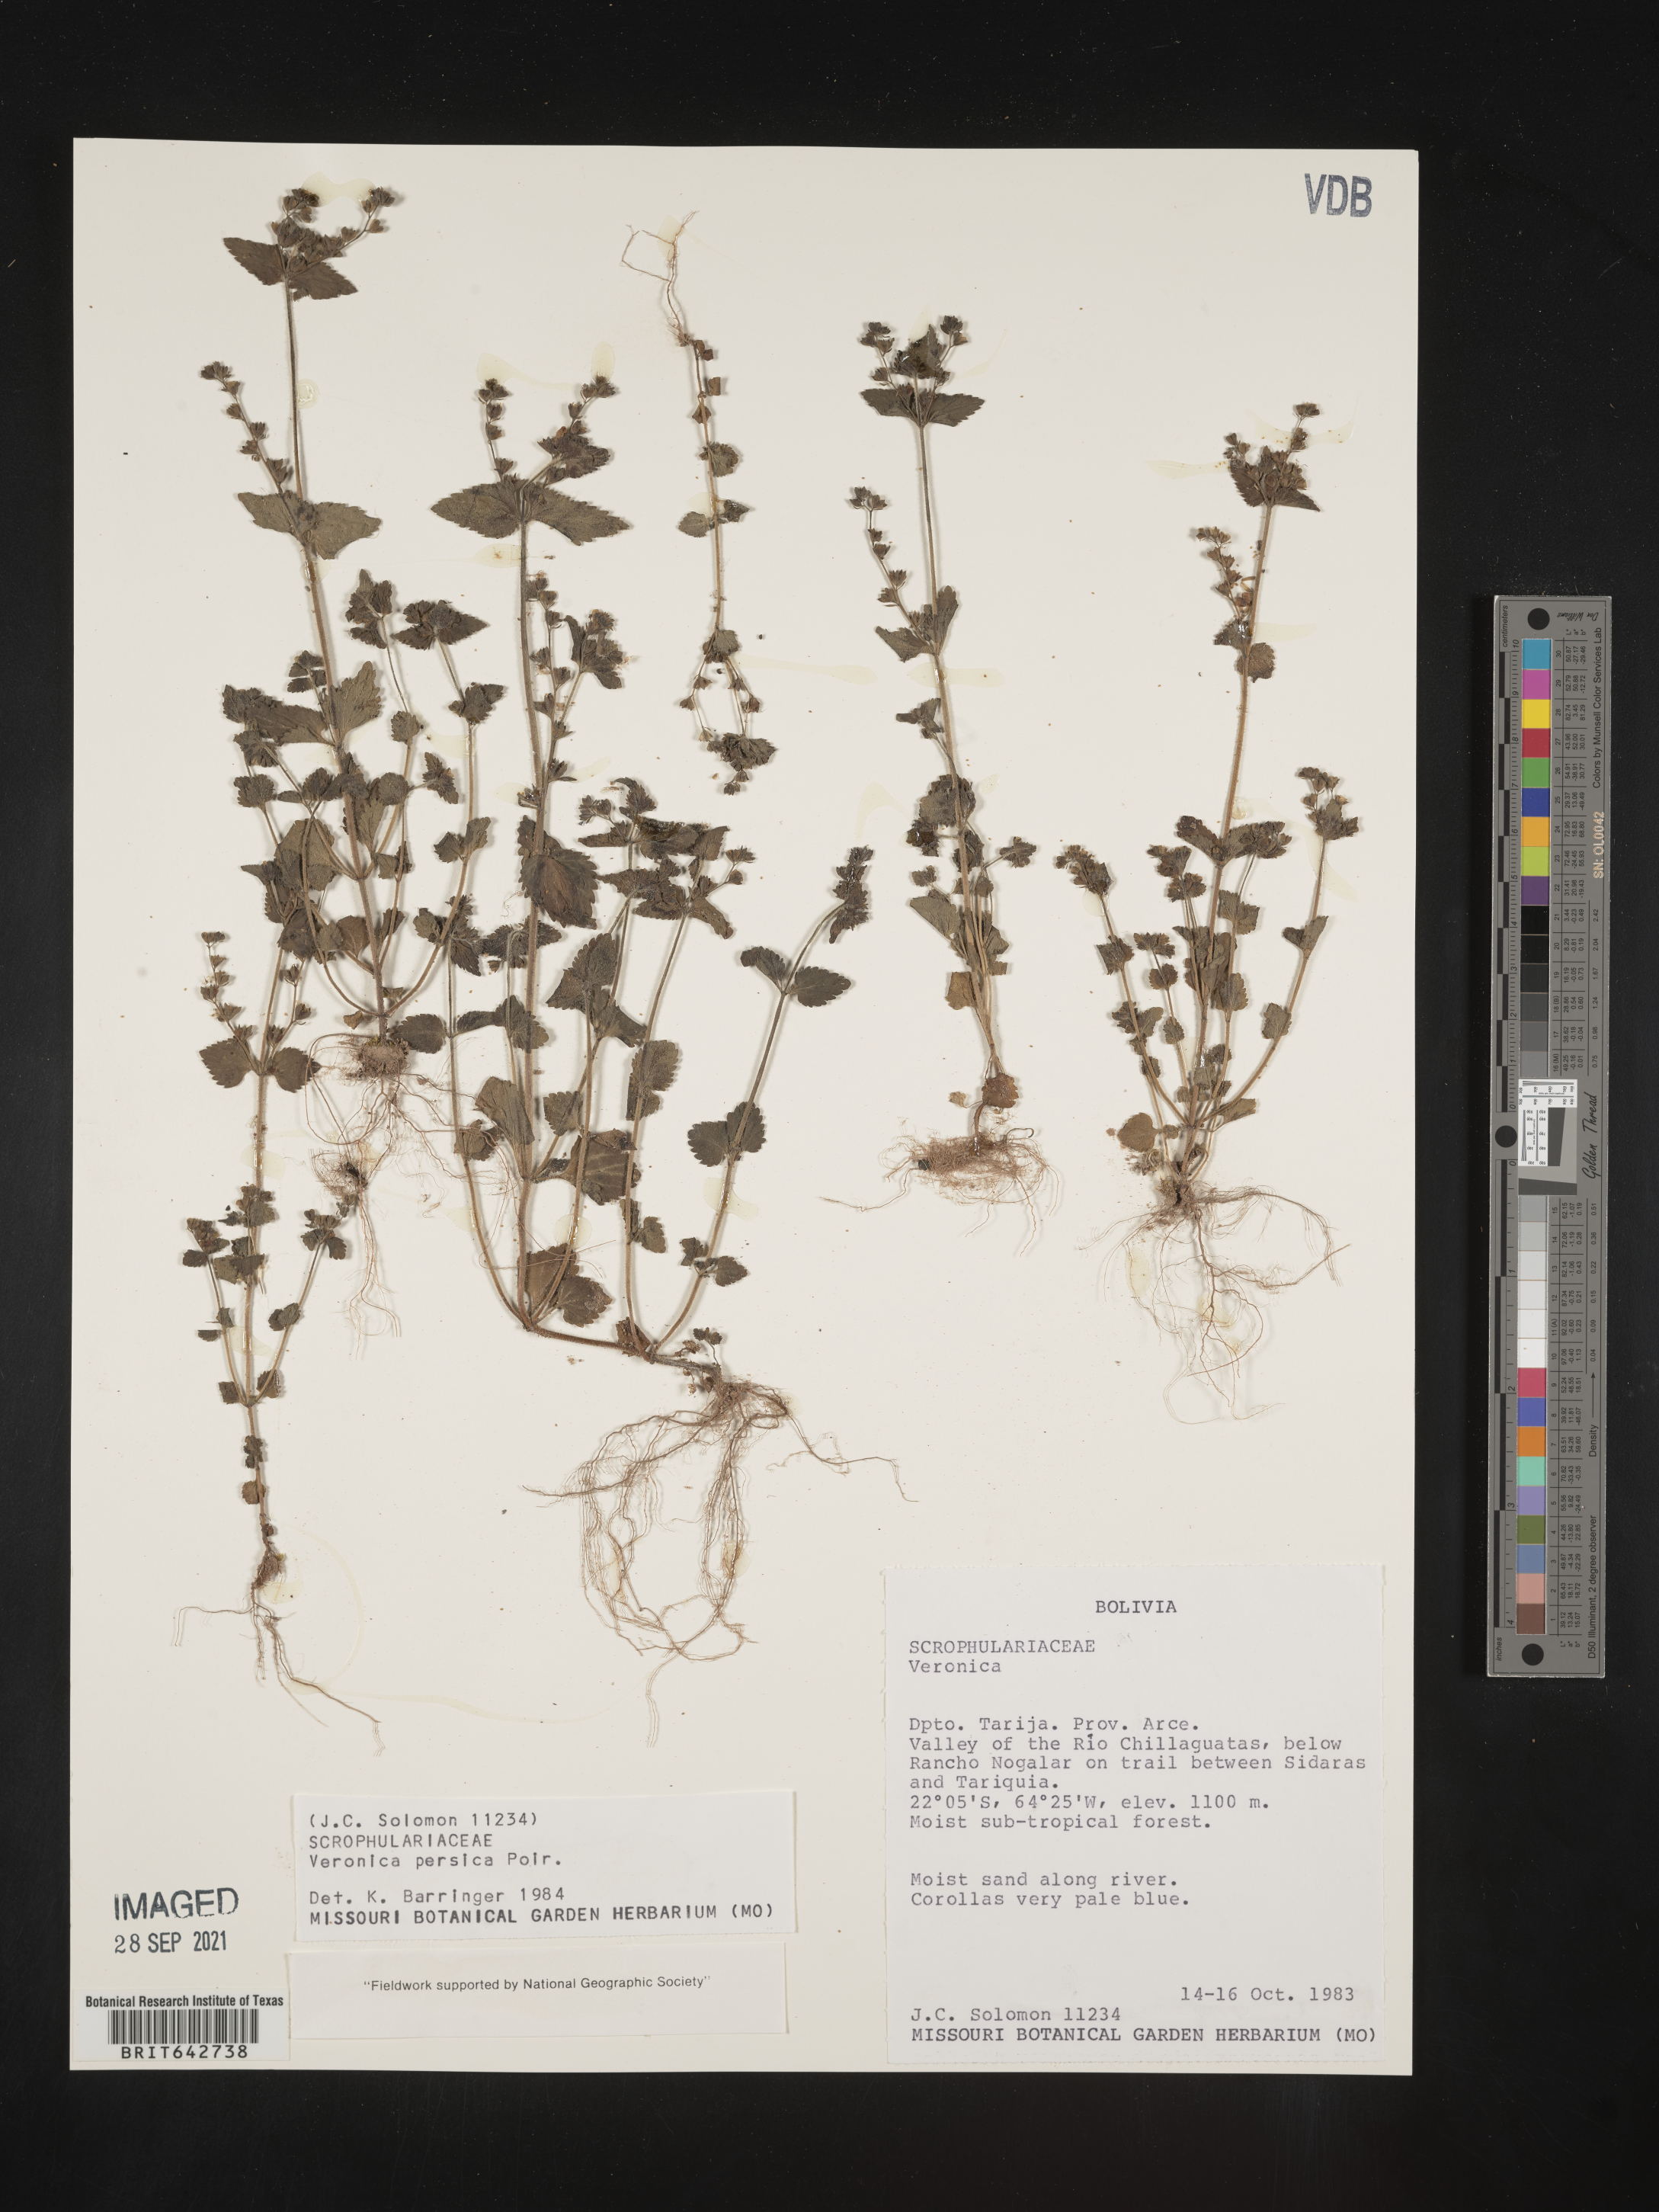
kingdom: Plantae
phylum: Tracheophyta
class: Magnoliopsida
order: Lamiales
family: Plantaginaceae
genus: Veronica
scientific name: Veronica
